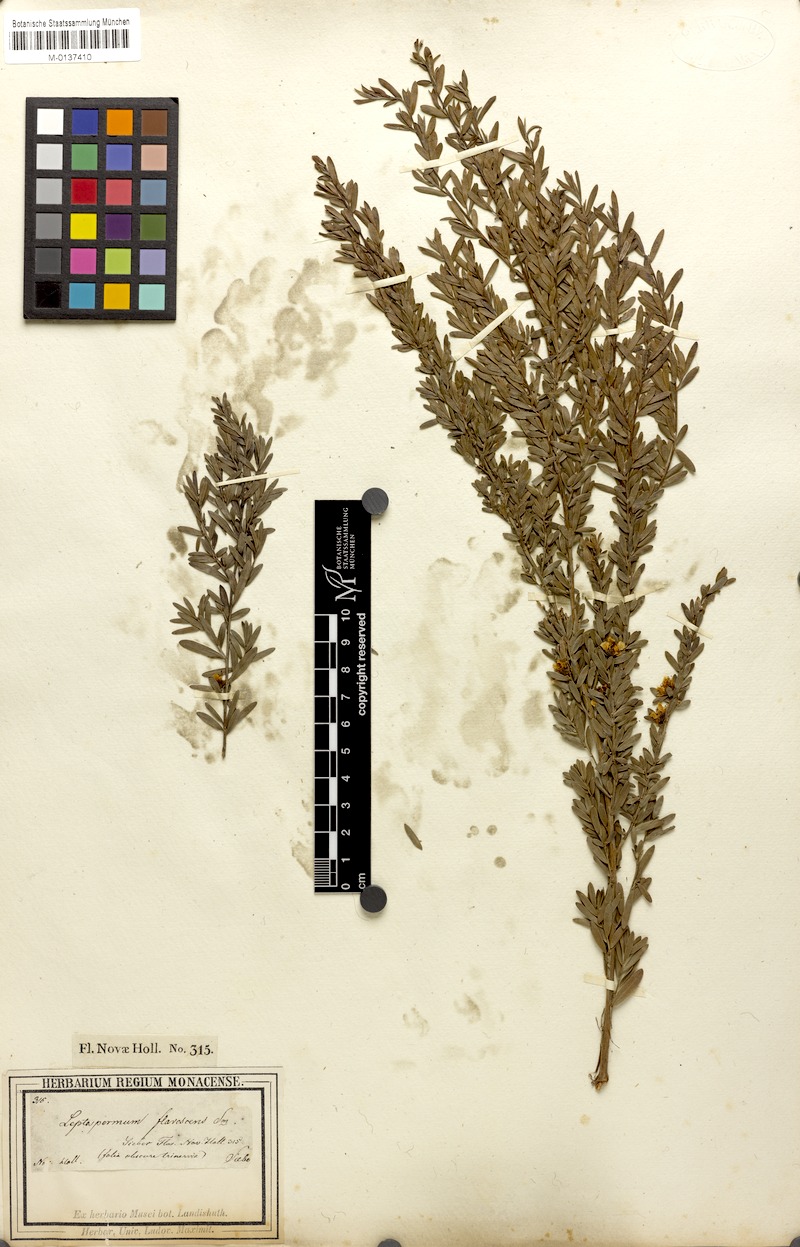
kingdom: Plantae
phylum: Tracheophyta
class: Magnoliopsida
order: Myrtales
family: Myrtaceae
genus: Leptospermum
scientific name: Leptospermum polygalifolium
